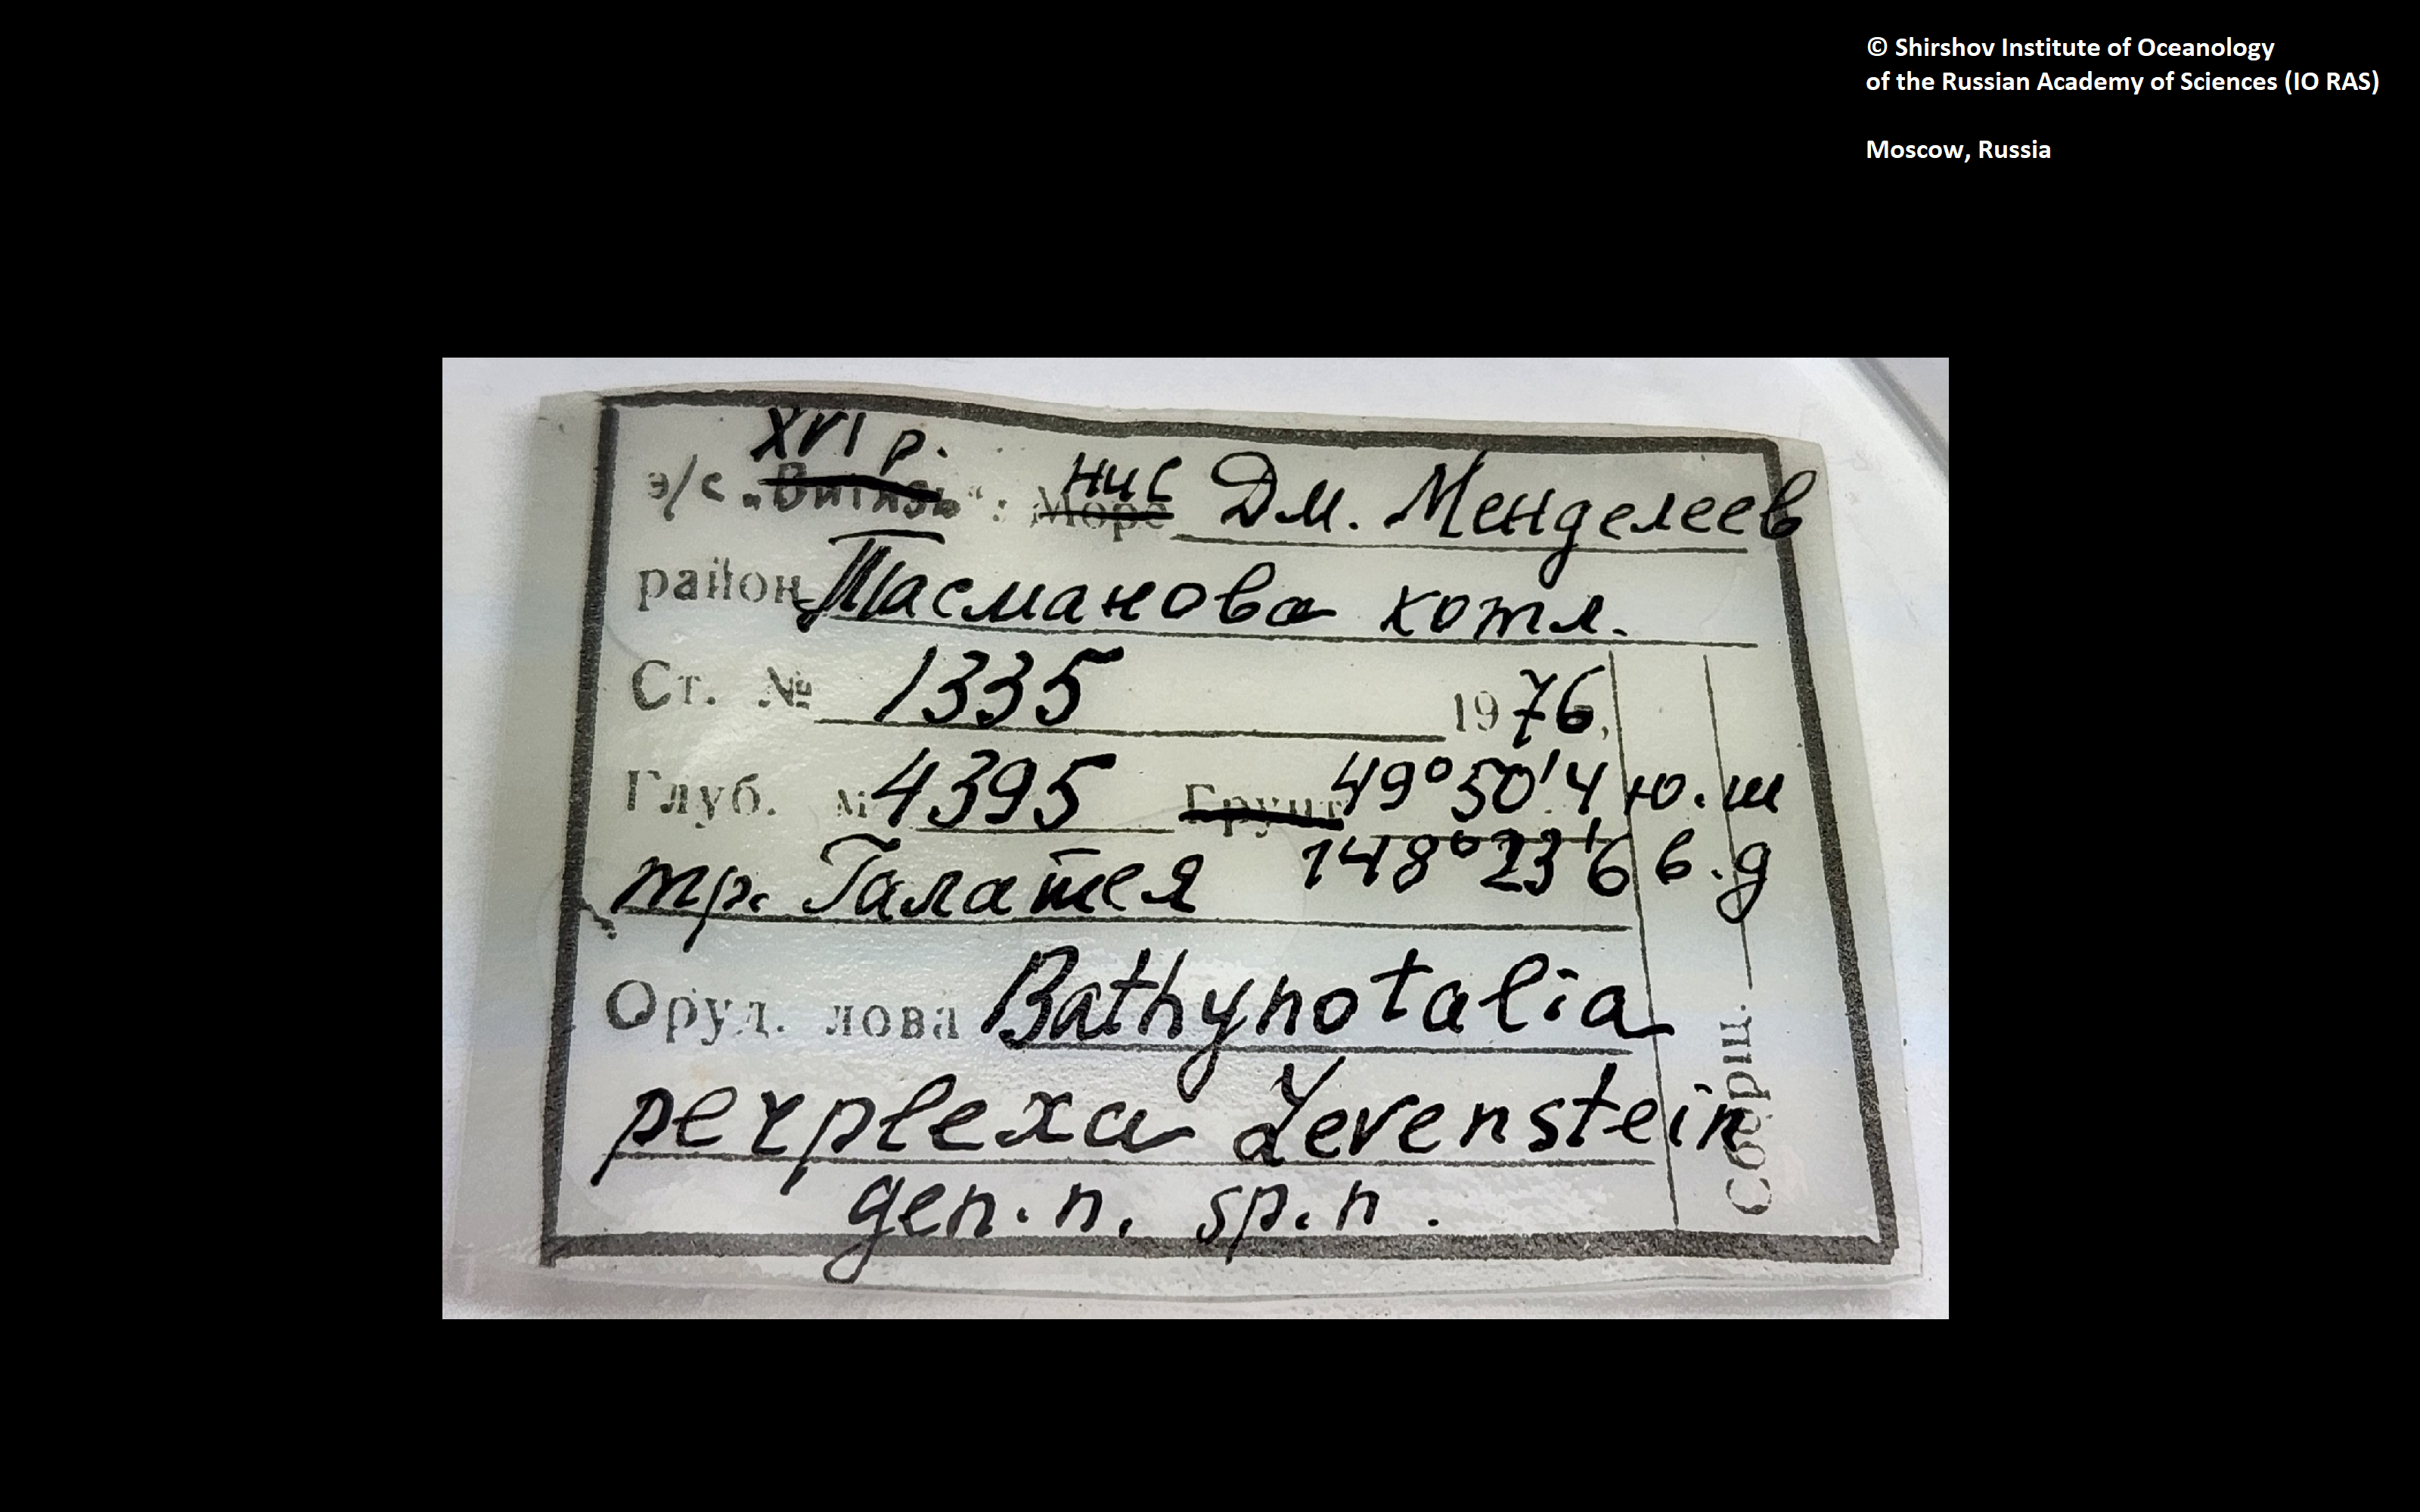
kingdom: Animalia
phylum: Annelida
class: Polychaeta
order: Phyllodocida
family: Polynoidae
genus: Bathynotalia
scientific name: Bathynotalia perplexa
